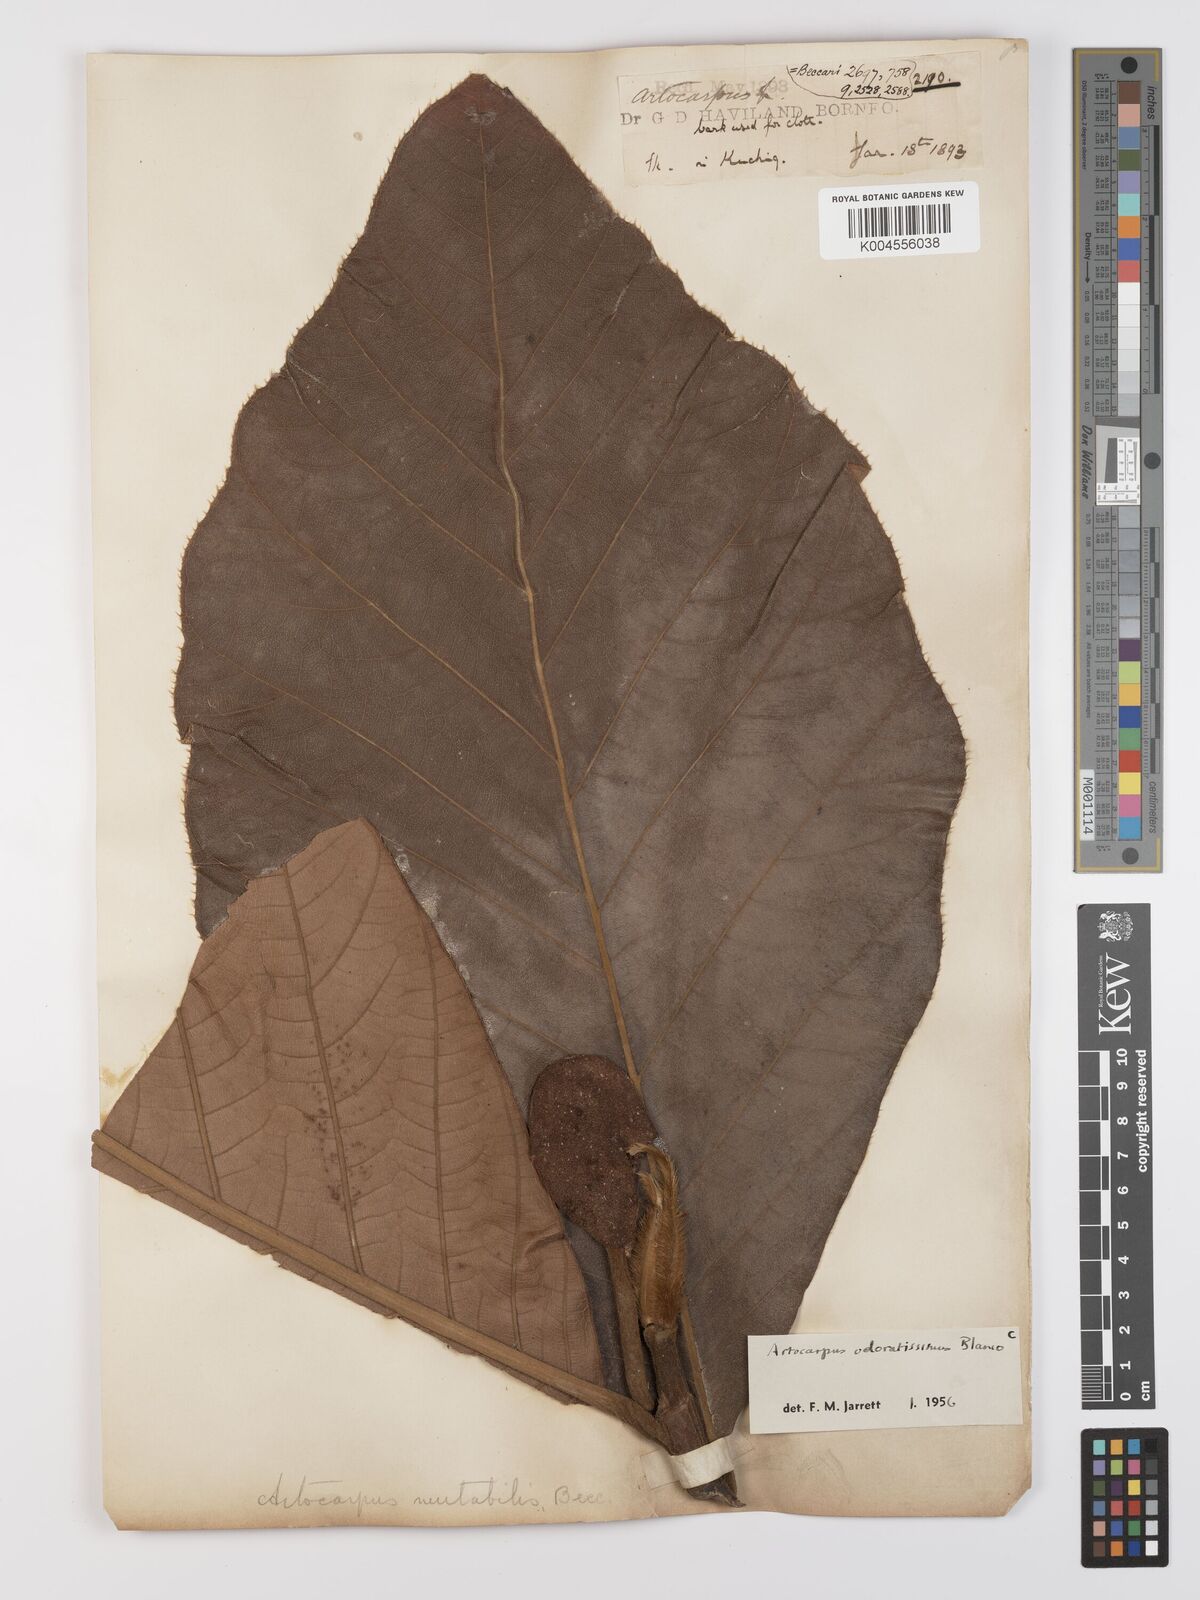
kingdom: Plantae
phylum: Tracheophyta
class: Magnoliopsida
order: Rosales
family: Moraceae
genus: Artocarpus
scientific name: Artocarpus odoratissimus
